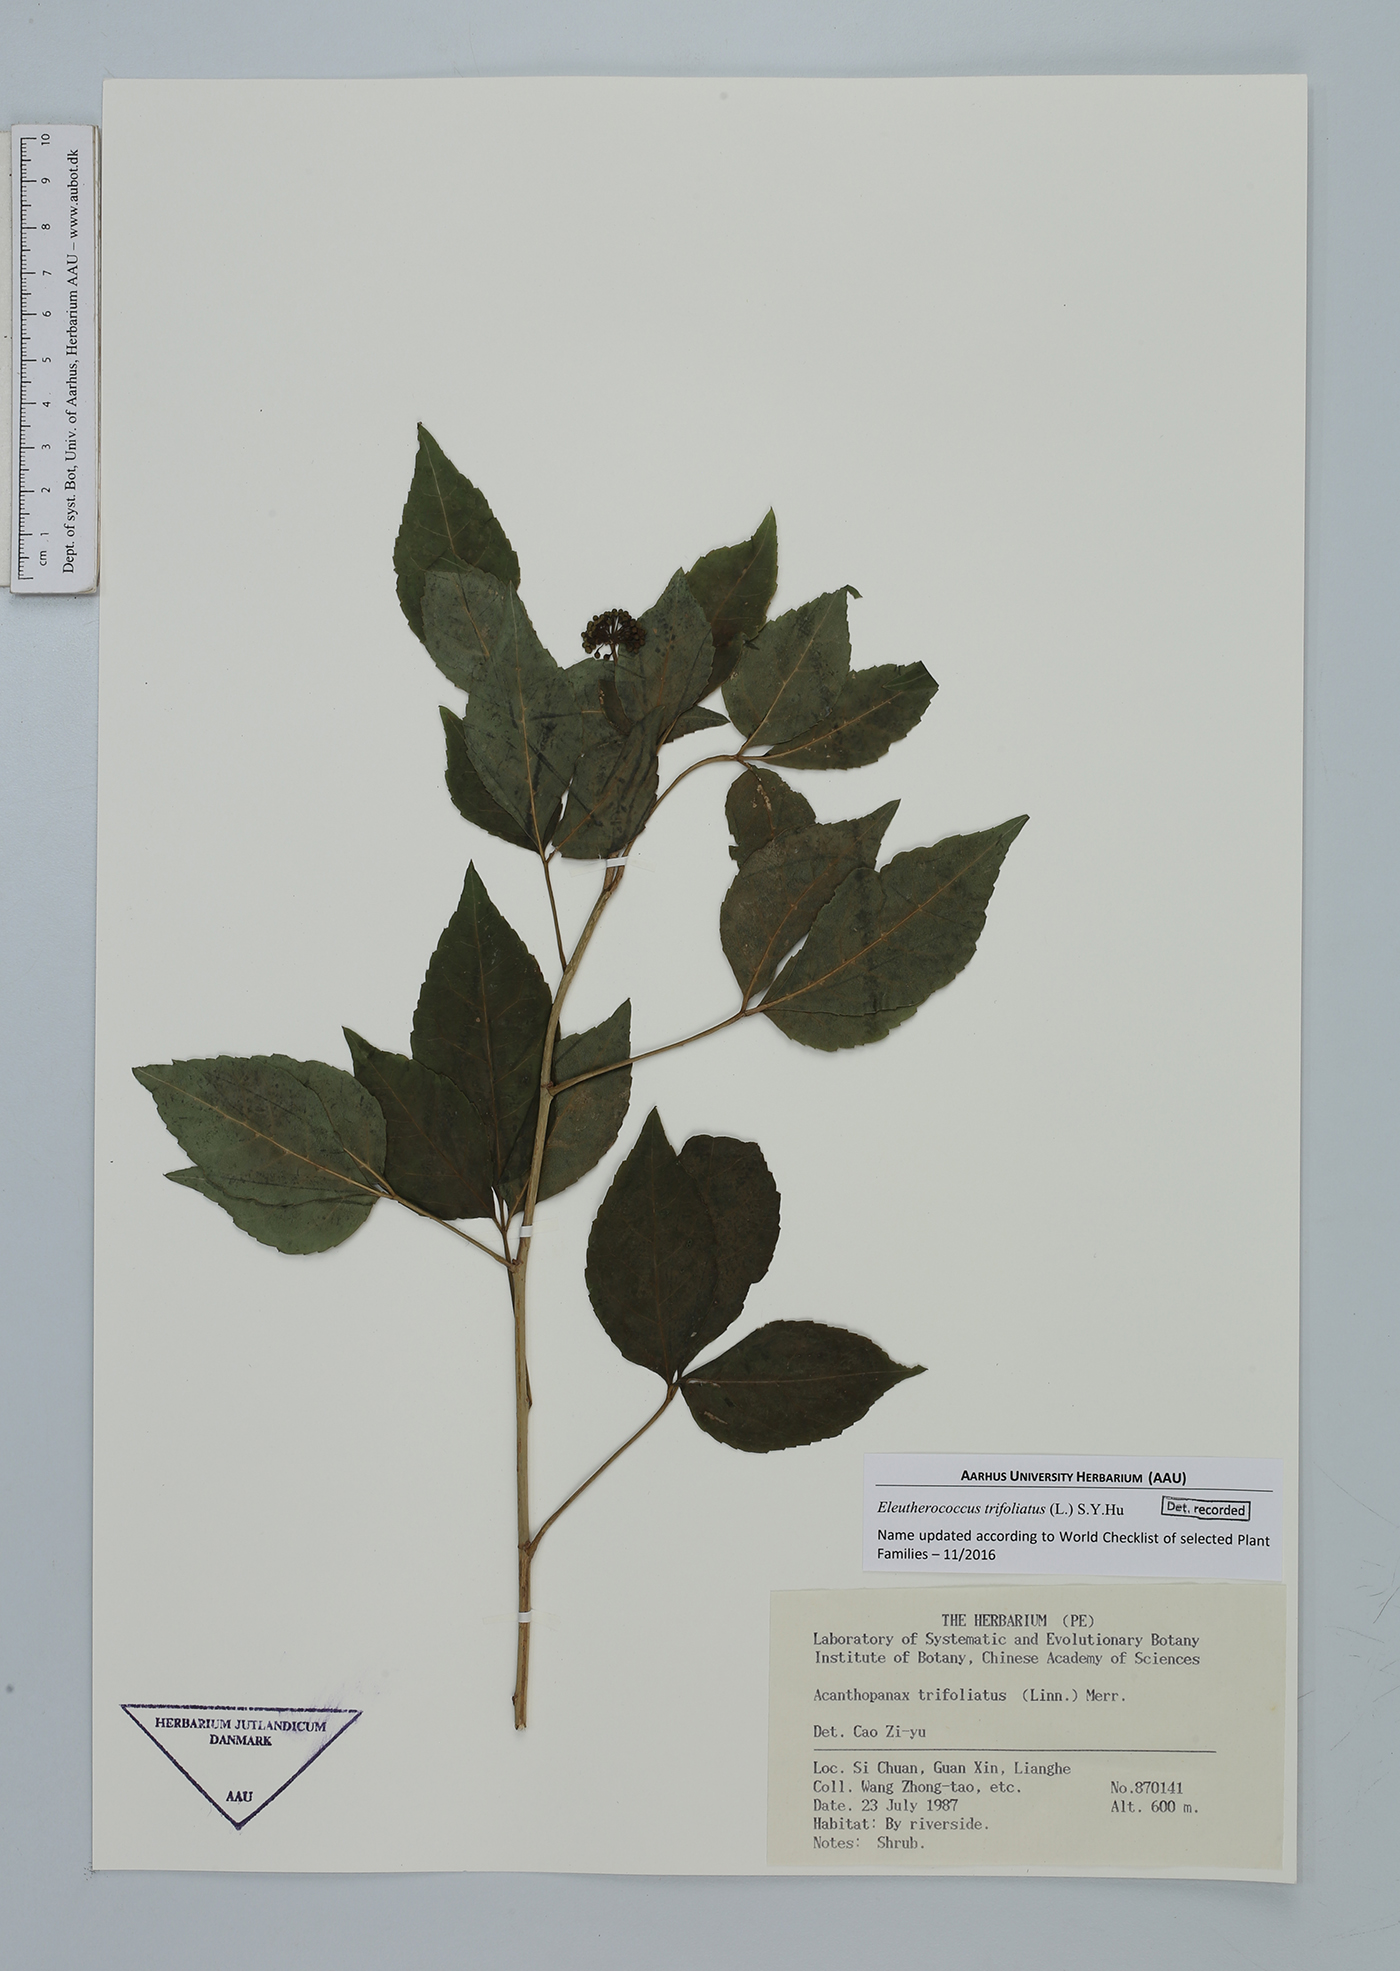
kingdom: Plantae
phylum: Tracheophyta
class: Magnoliopsida
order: Apiales
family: Araliaceae
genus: Eleutherococcus
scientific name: Eleutherococcus trifoliatus
